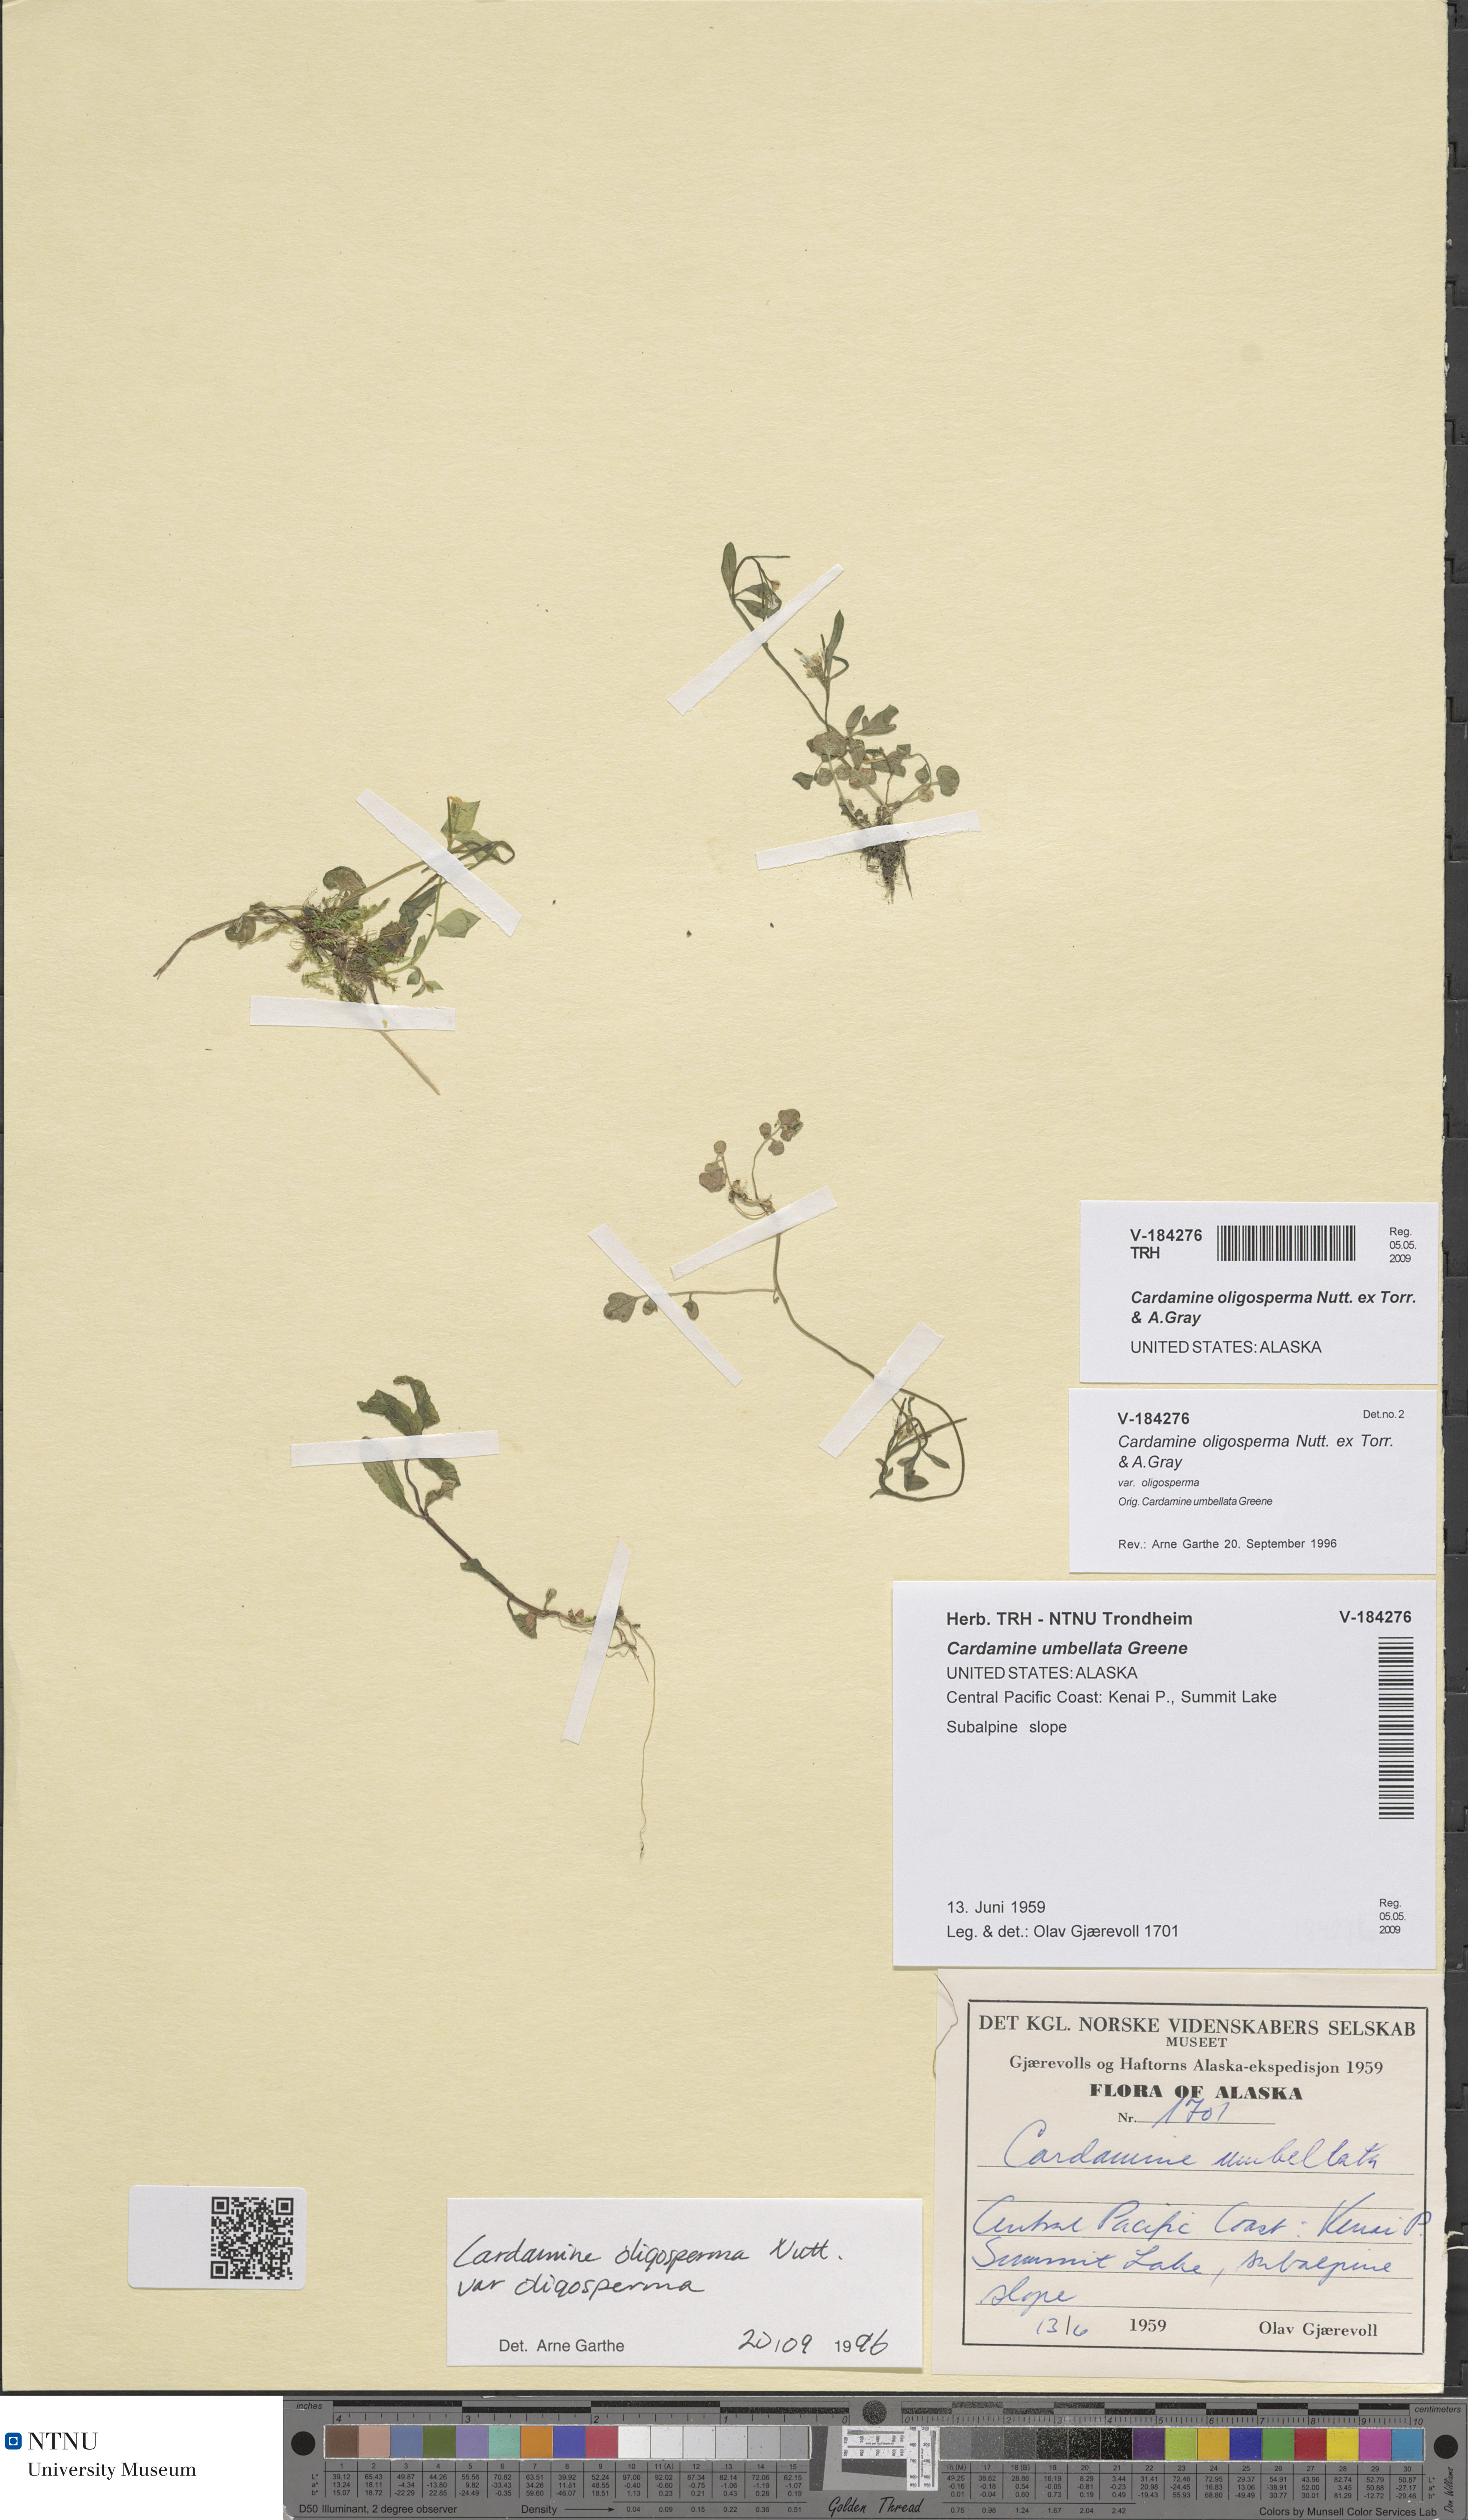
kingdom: Plantae
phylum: Tracheophyta
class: Magnoliopsida
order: Brassicales
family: Brassicaceae
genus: Cardamine
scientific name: Cardamine breweri
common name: Brewer's bittercress
